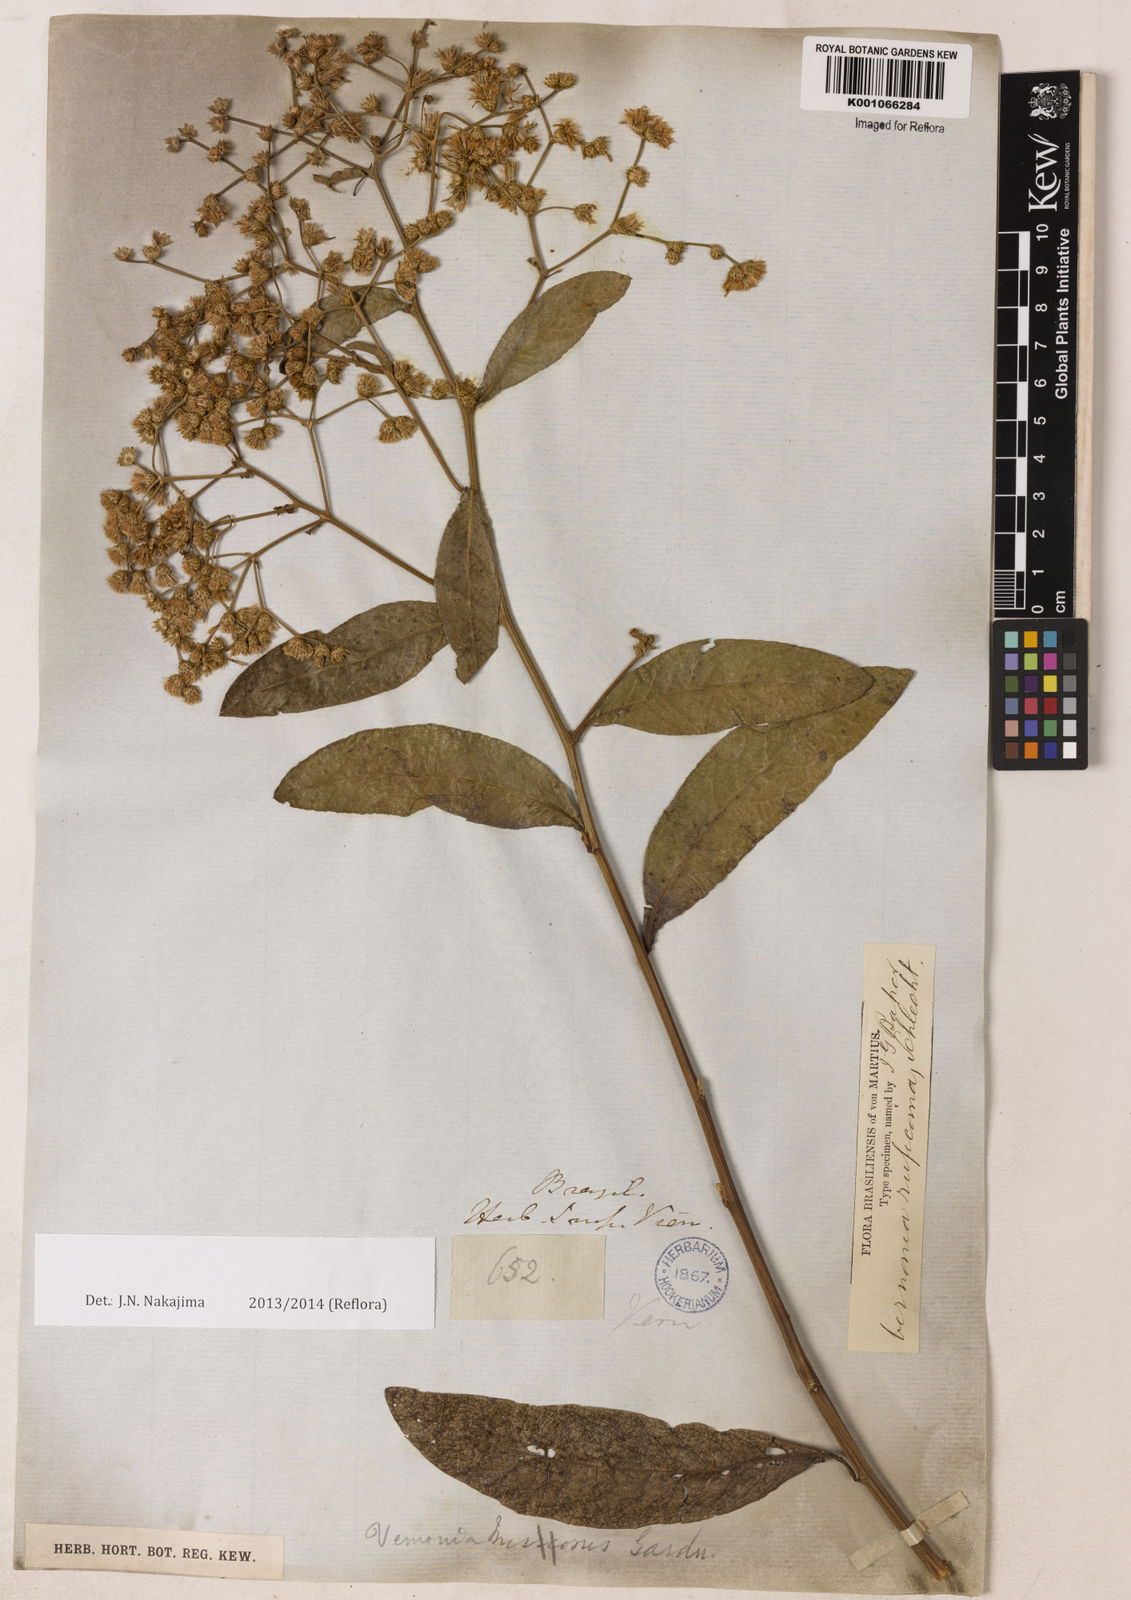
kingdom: Plantae
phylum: Tracheophyta
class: Magnoliopsida
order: Asterales
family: Asteraceae
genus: Vernonia
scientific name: Vernonia
